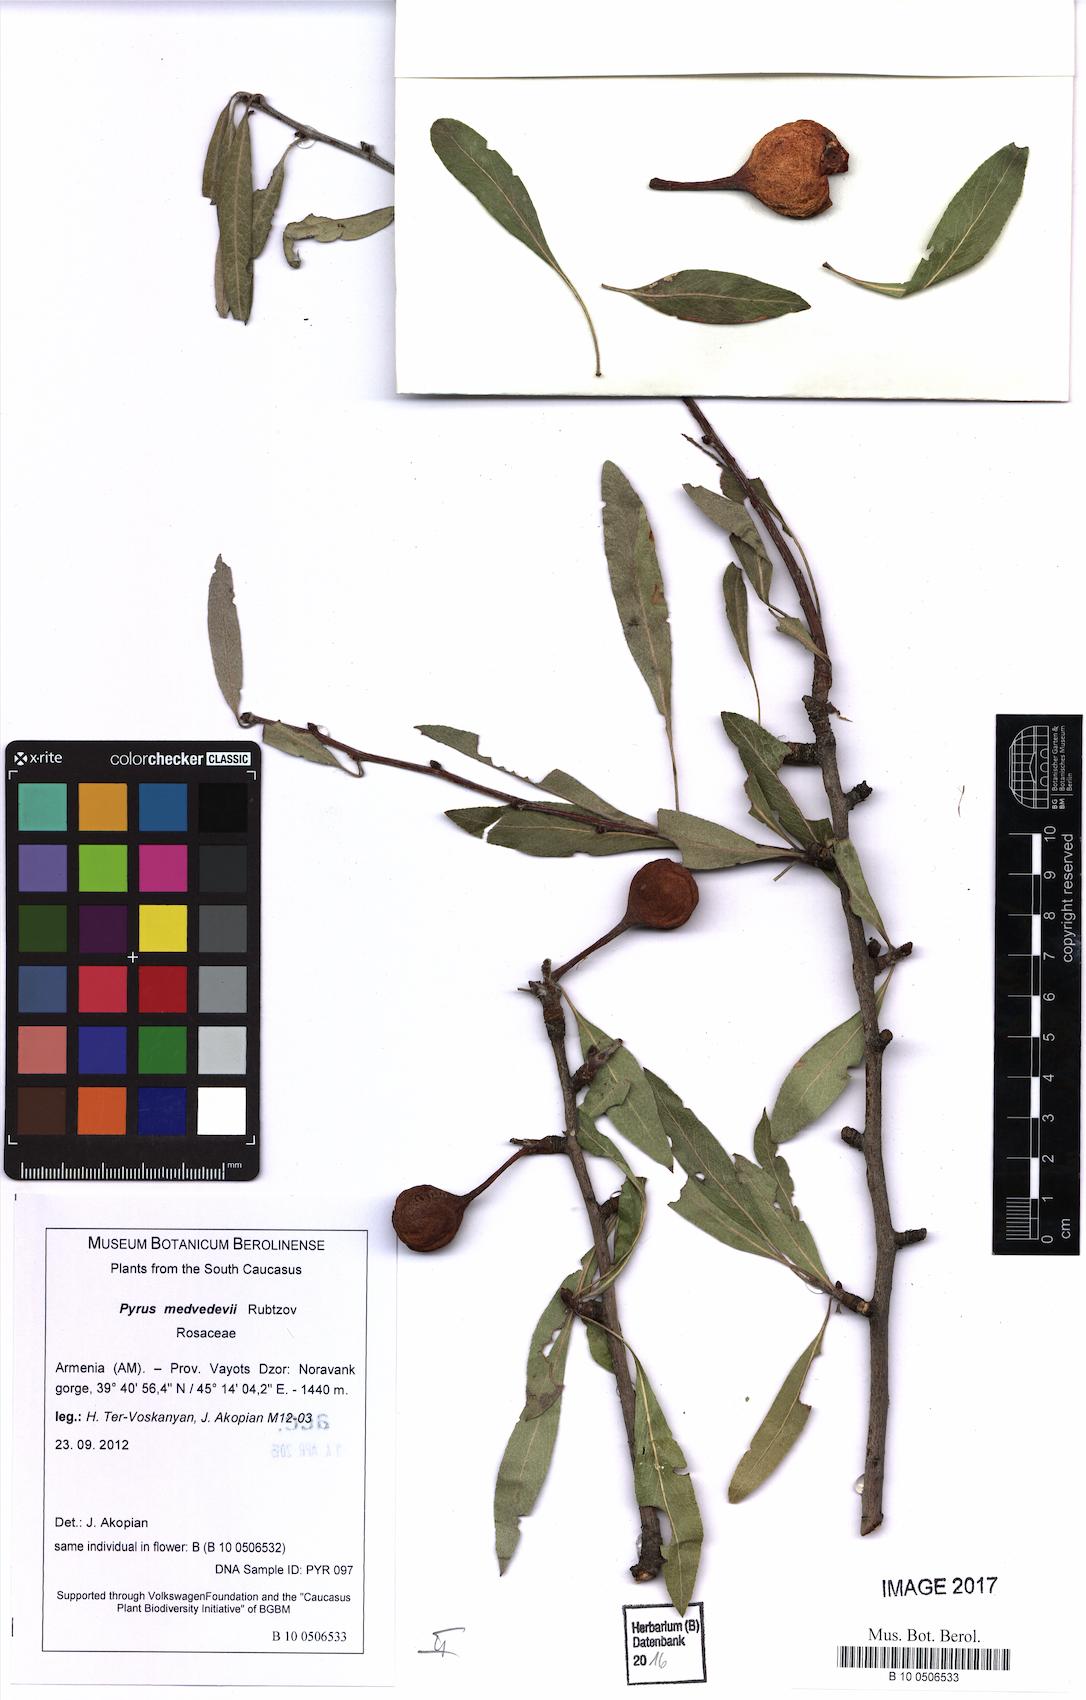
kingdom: Plantae
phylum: Tracheophyta
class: Magnoliopsida
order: Rosales
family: Rosaceae
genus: Pyrus
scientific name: Pyrus medvedevii
